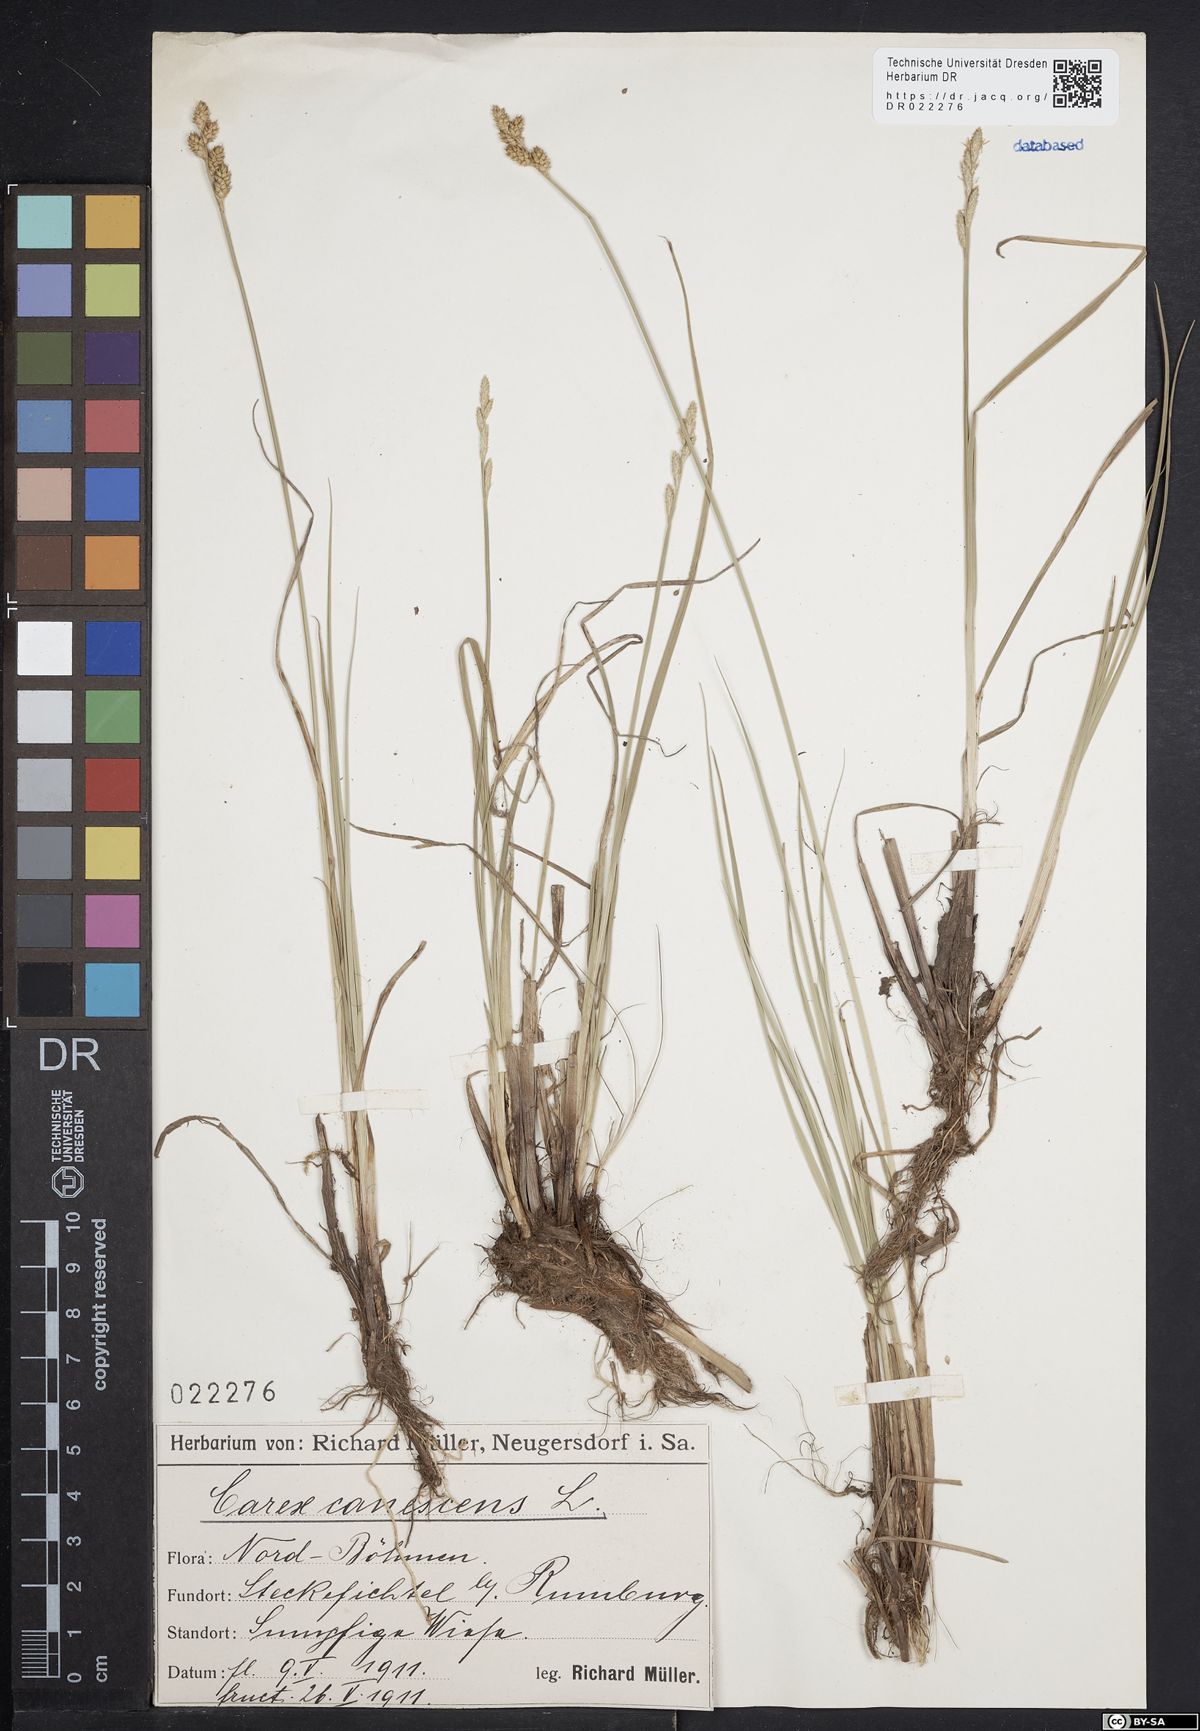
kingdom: Plantae
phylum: Tracheophyta
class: Liliopsida
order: Poales
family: Cyperaceae
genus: Carex
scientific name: Carex canescens
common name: White sedge
